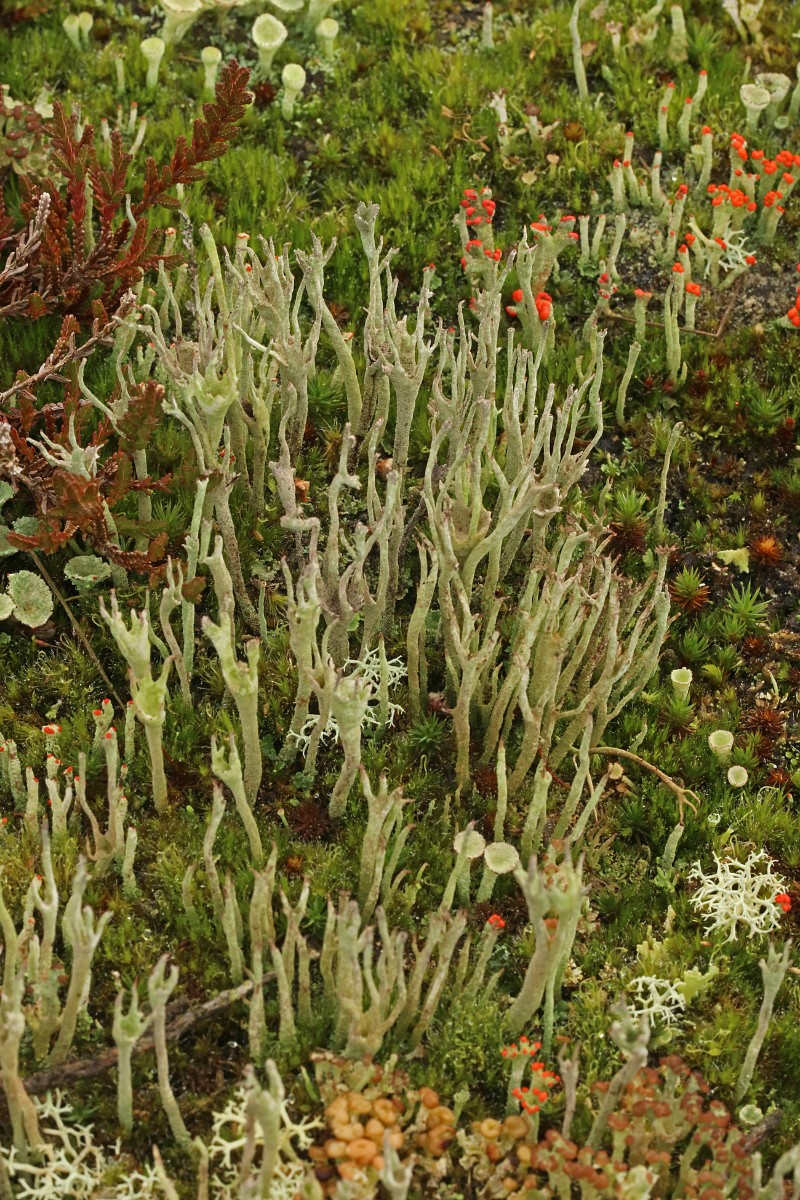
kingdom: Fungi
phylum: Ascomycota
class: Lecanoromycetes
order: Lecanorales
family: Cladoniaceae
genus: Cladonia
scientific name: Cladonia subulata
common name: spids bægerlav
